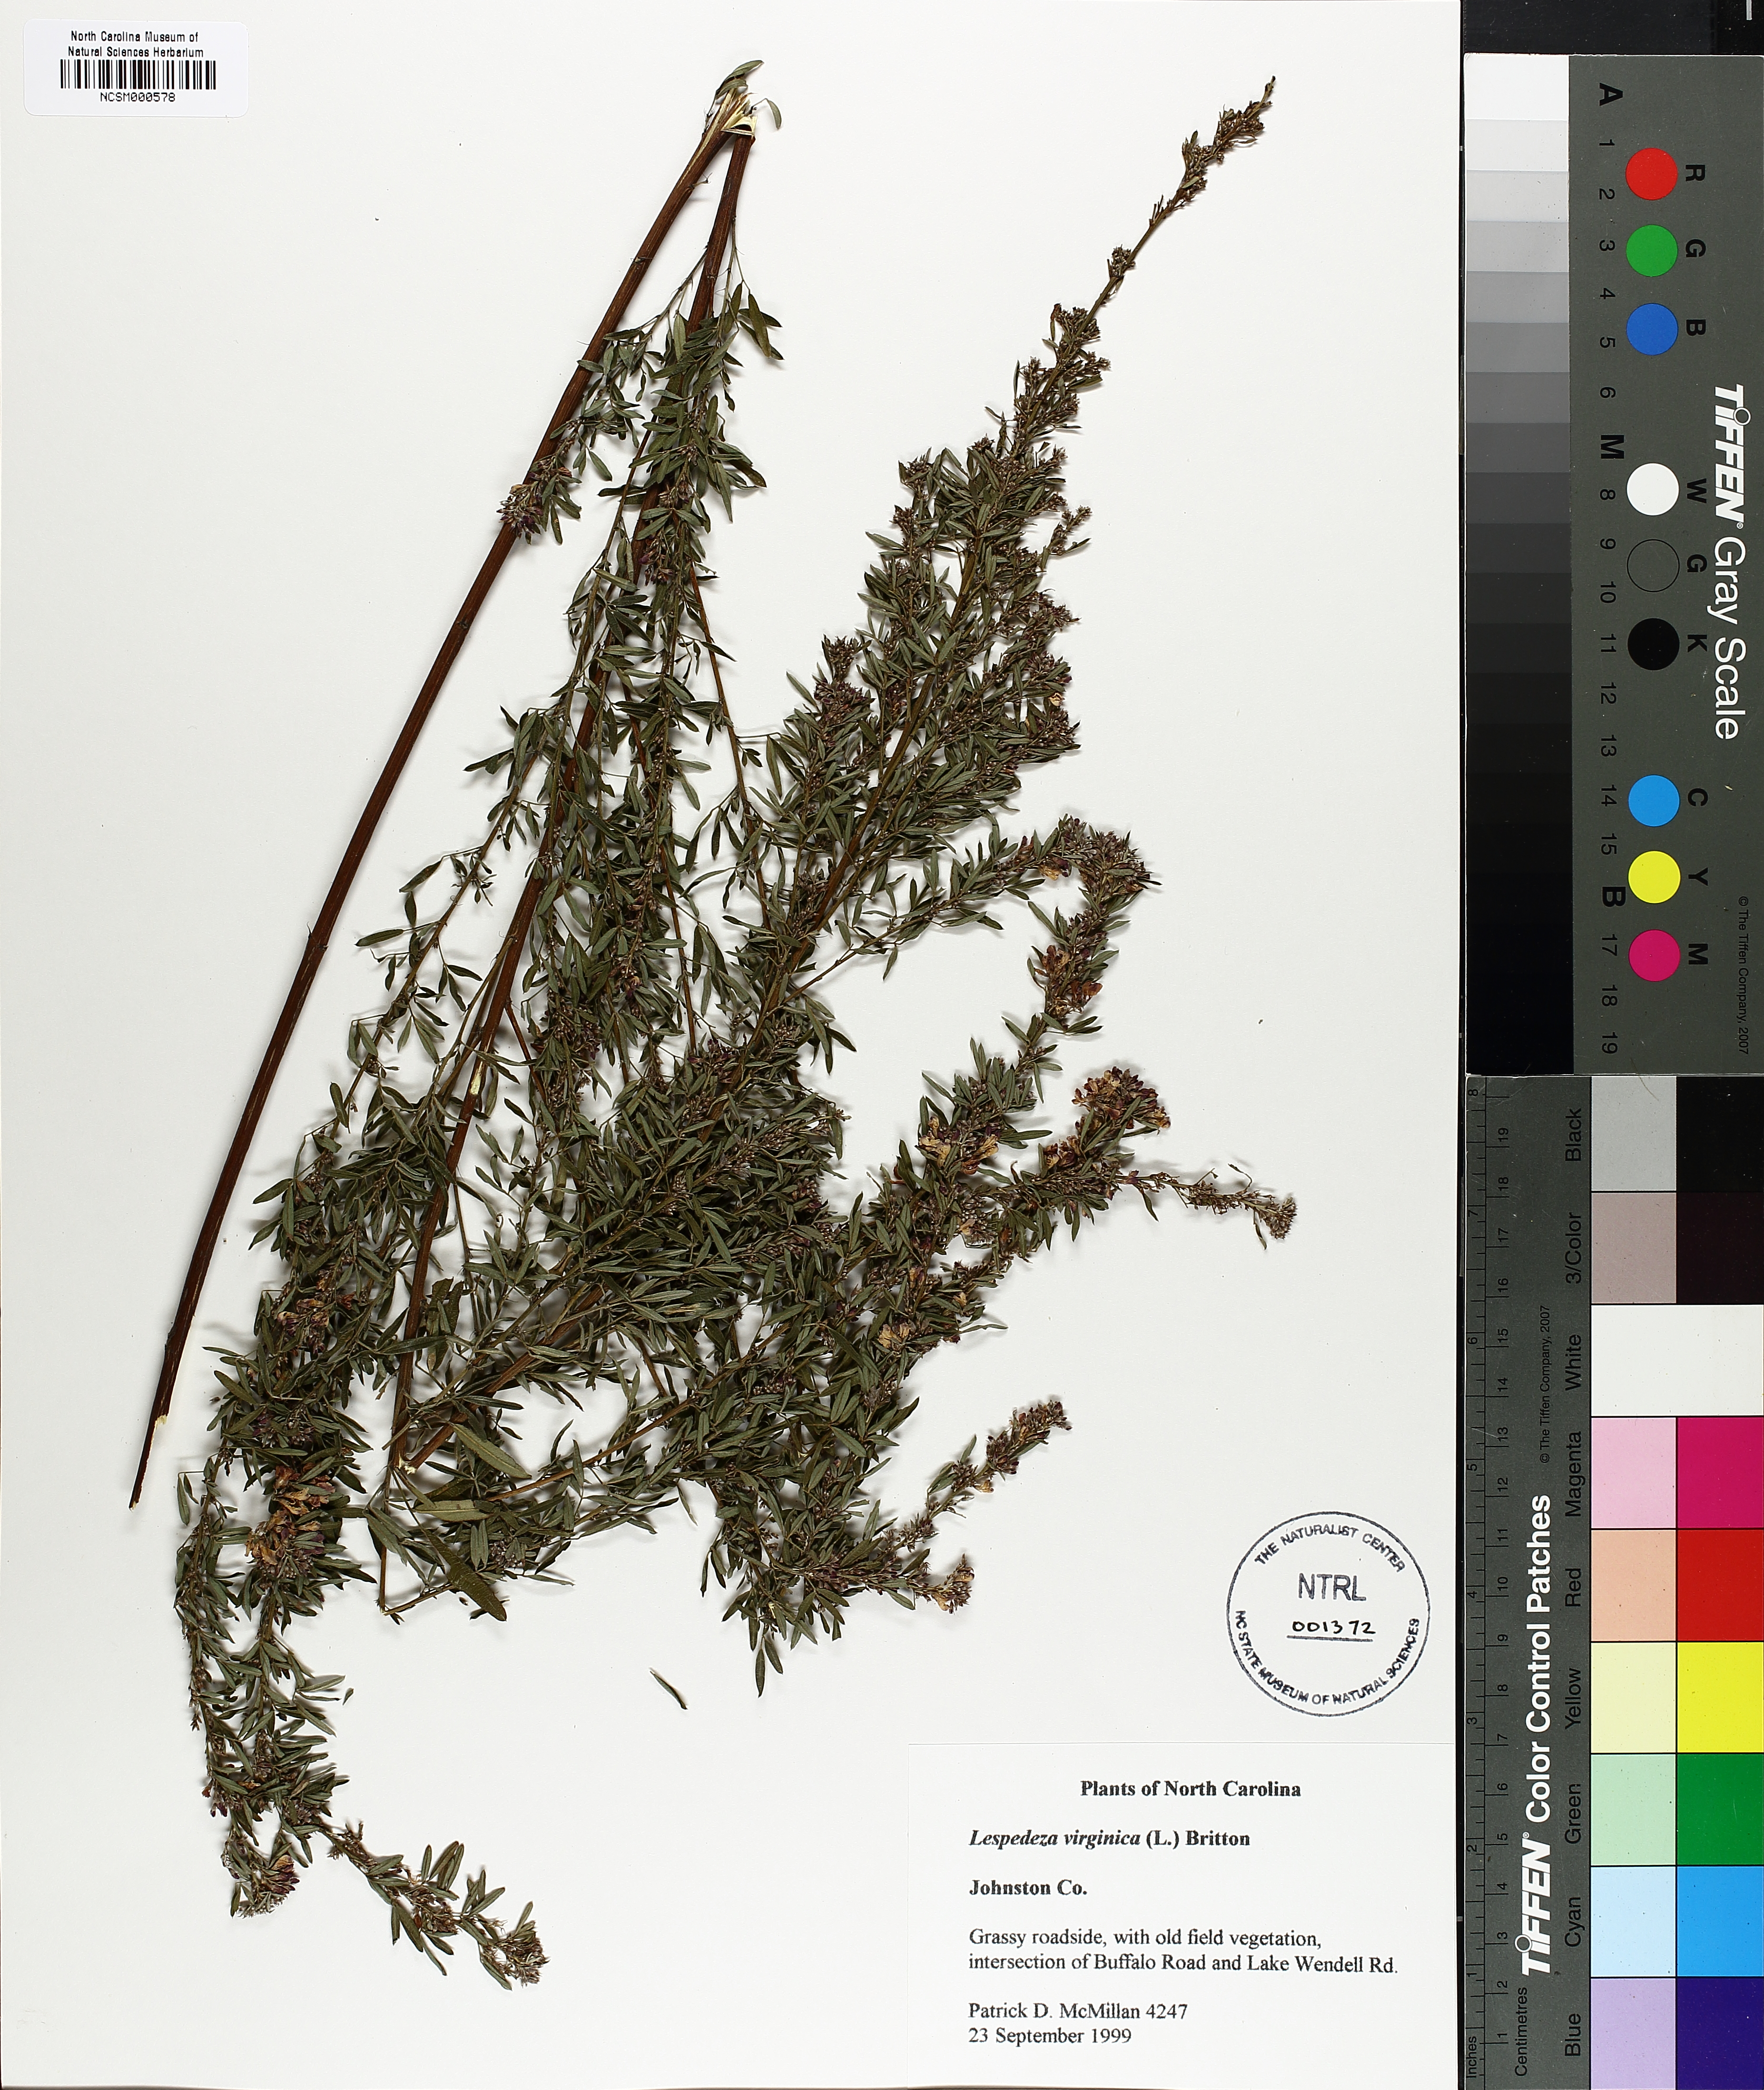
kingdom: Plantae
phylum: Tracheophyta
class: Magnoliopsida
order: Fabales
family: Fabaceae
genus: Lespedeza
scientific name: Lespedeza virginica
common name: Slender bush-clover
